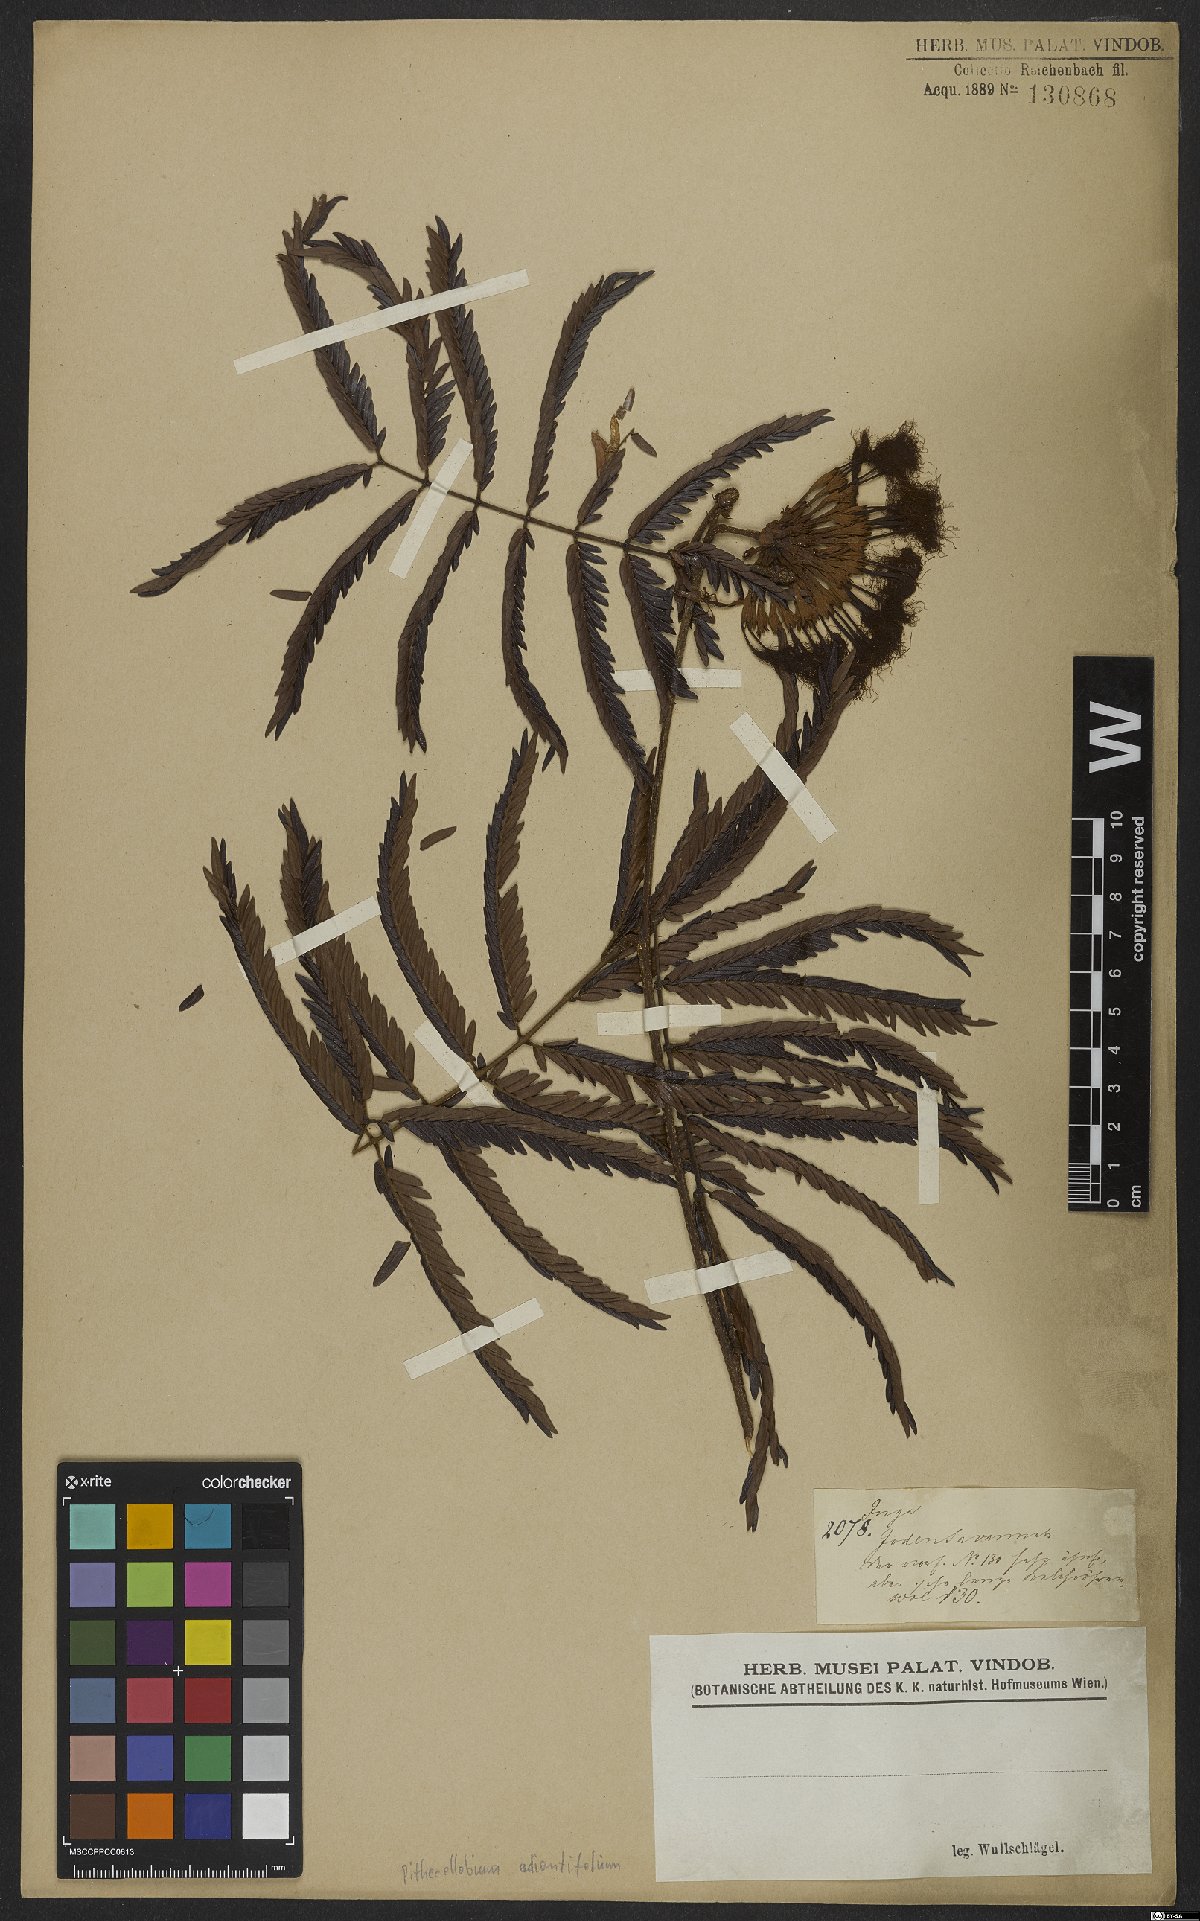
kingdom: Plantae
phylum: Tracheophyta
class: Magnoliopsida
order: Fabales
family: Fabaceae
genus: Macrosamanea
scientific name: Macrosamanea discolor
